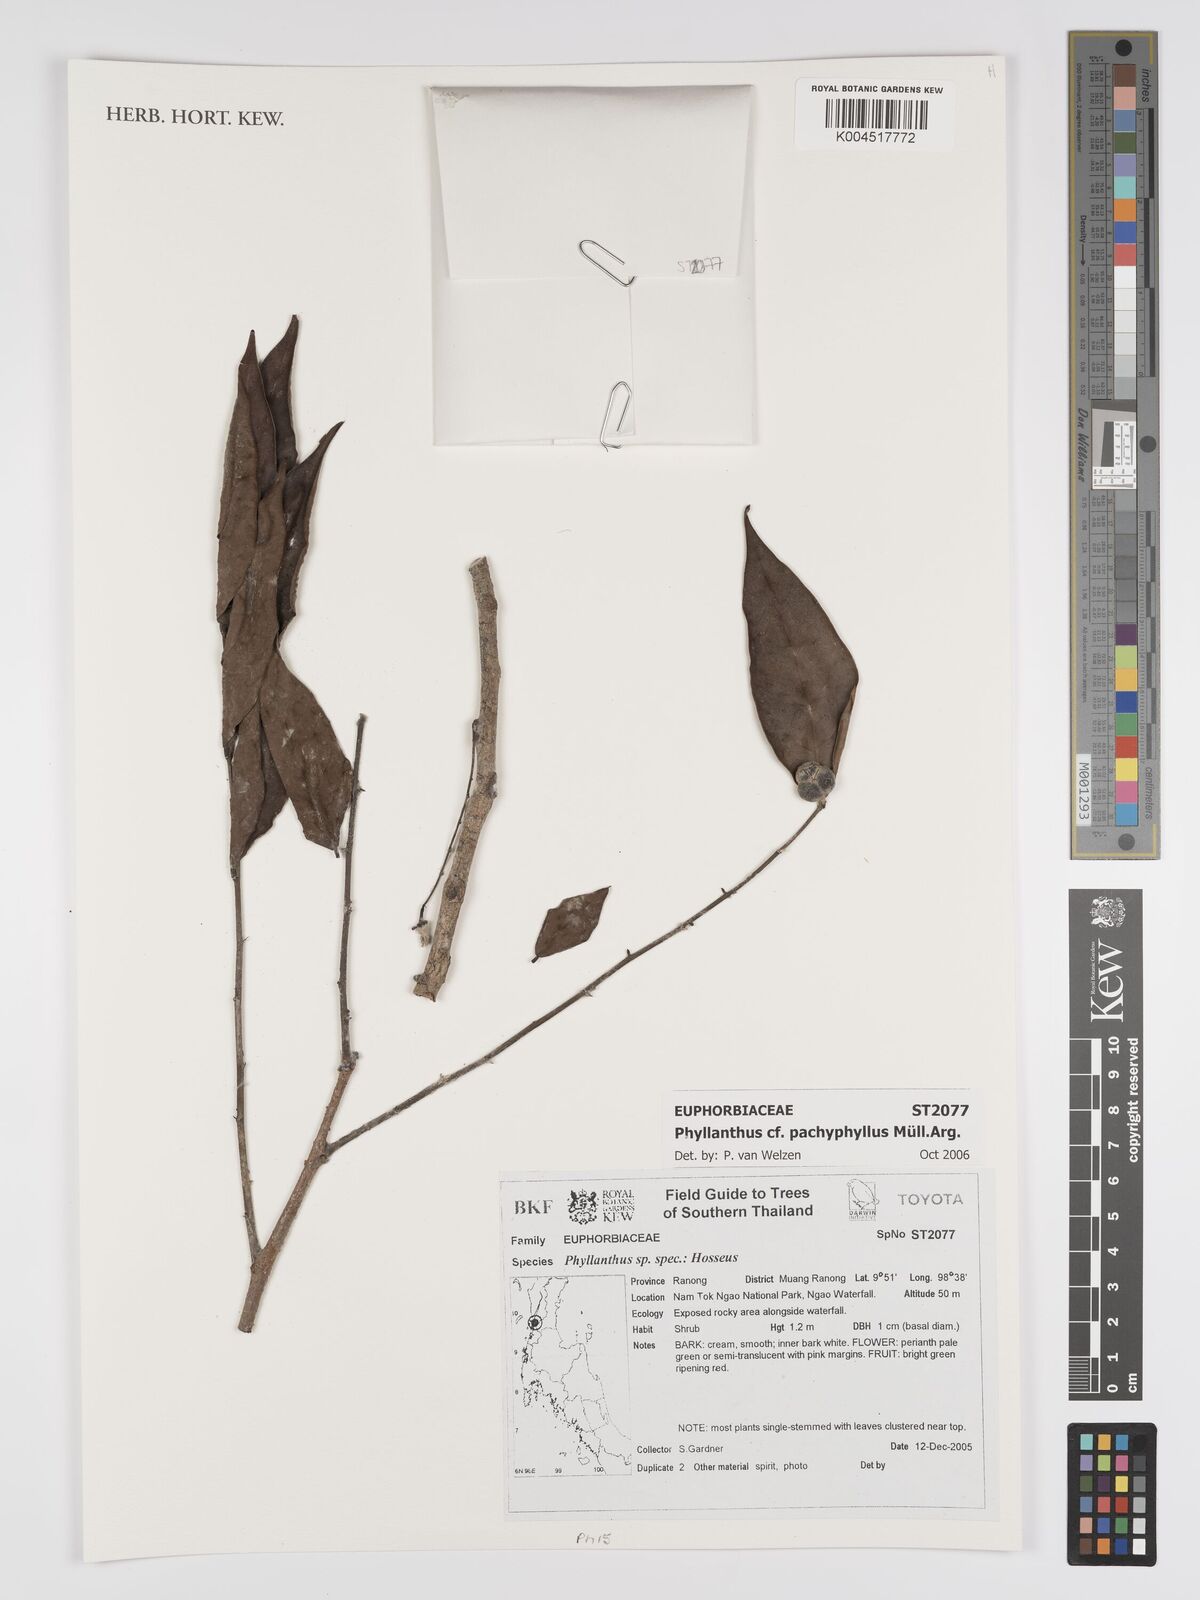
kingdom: Plantae
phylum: Tracheophyta
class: Magnoliopsida
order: Malpighiales
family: Phyllanthaceae
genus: Phyllanthus
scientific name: Phyllanthus pachyphyllus
